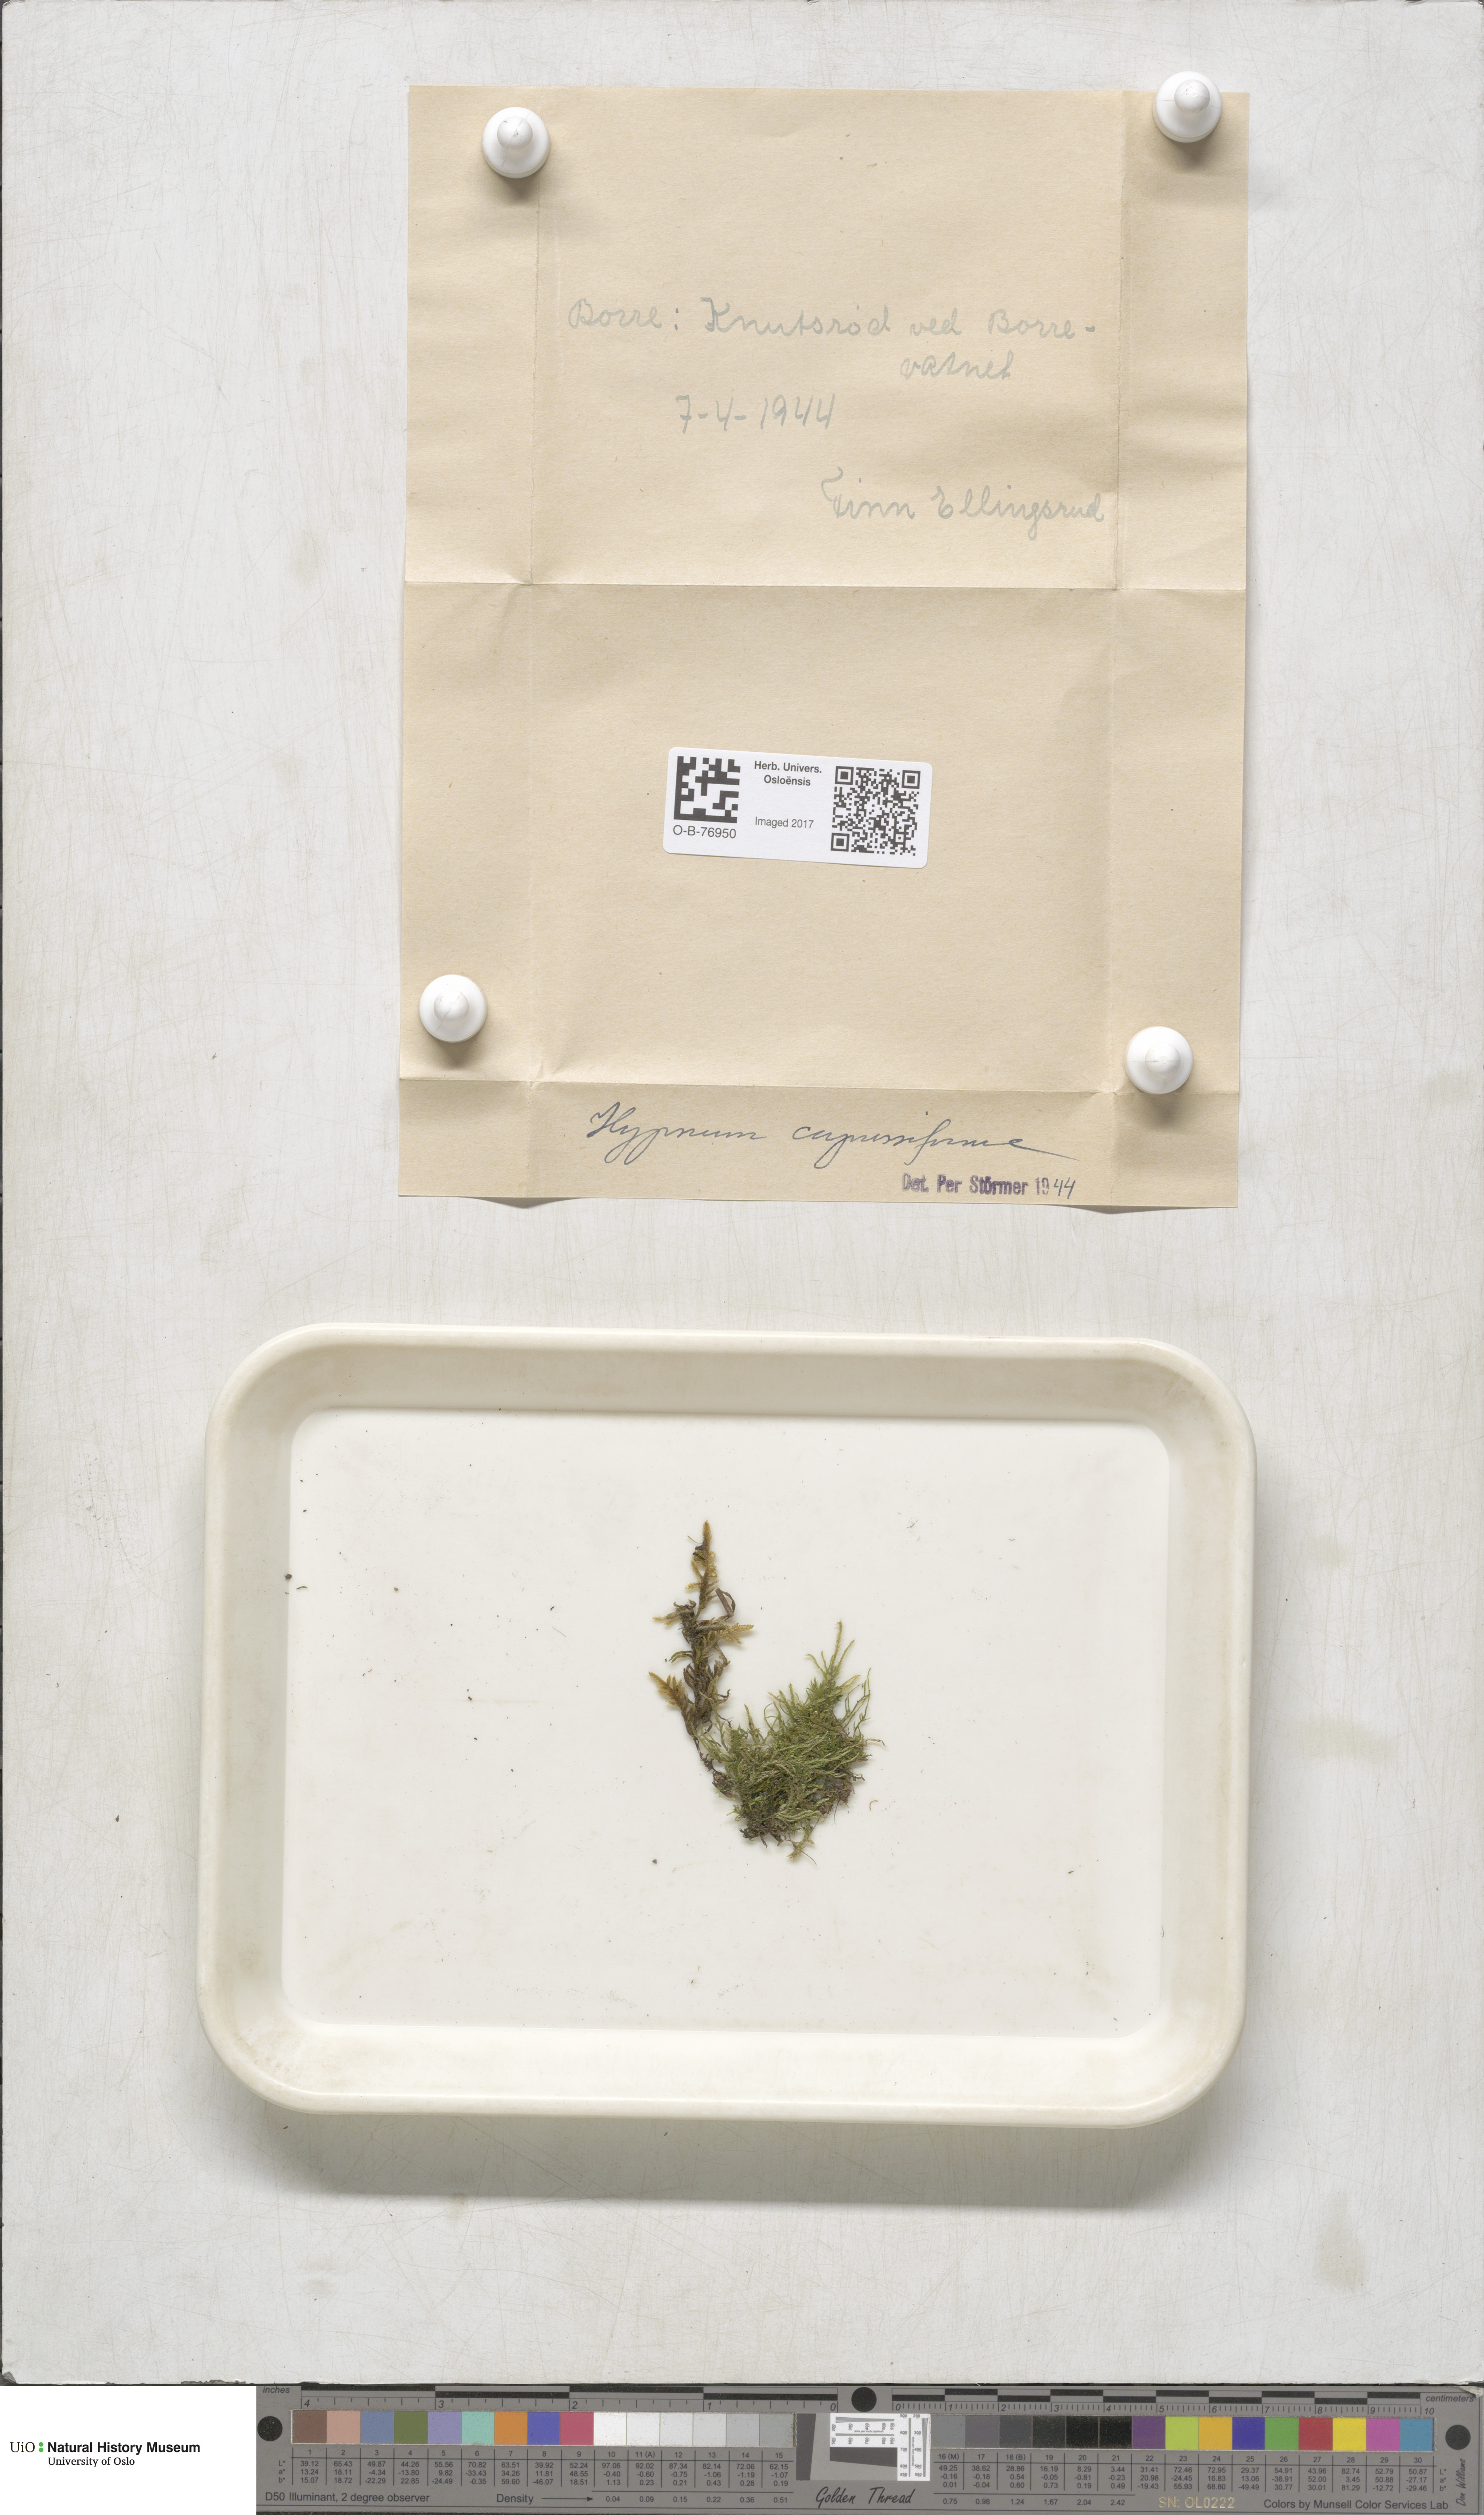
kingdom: Plantae
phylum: Bryophyta
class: Bryopsida
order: Hypnales
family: Hypnaceae
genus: Hypnum
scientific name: Hypnum cupressiforme
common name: Cypress-leaved plait-moss
